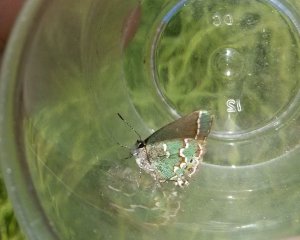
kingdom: Animalia
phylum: Arthropoda
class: Insecta
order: Lepidoptera
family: Lycaenidae
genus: Mitoura
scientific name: Mitoura gryneus
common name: Juniper Hairstreak
